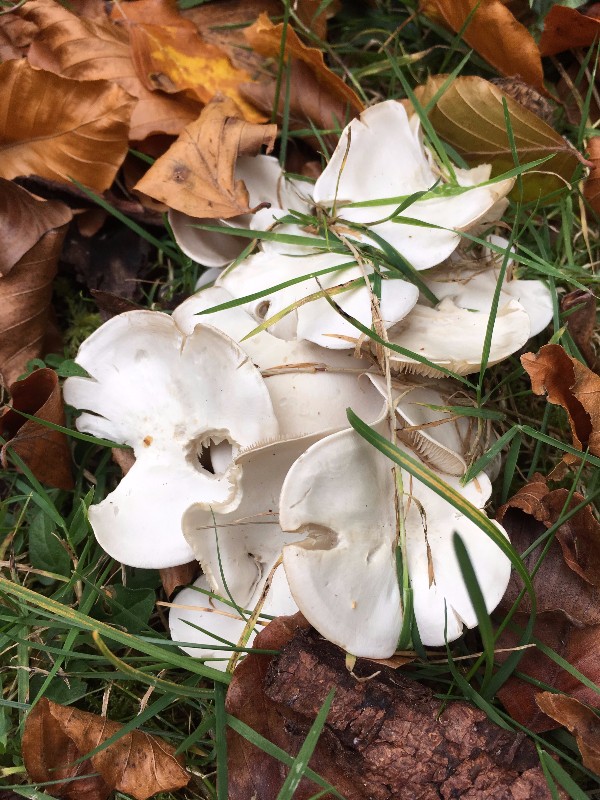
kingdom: Fungi
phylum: Basidiomycota
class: Agaricomycetes
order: Agaricales
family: Tricholomataceae
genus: Leucocybe
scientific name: Leucocybe connata
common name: knippe-tragthat
